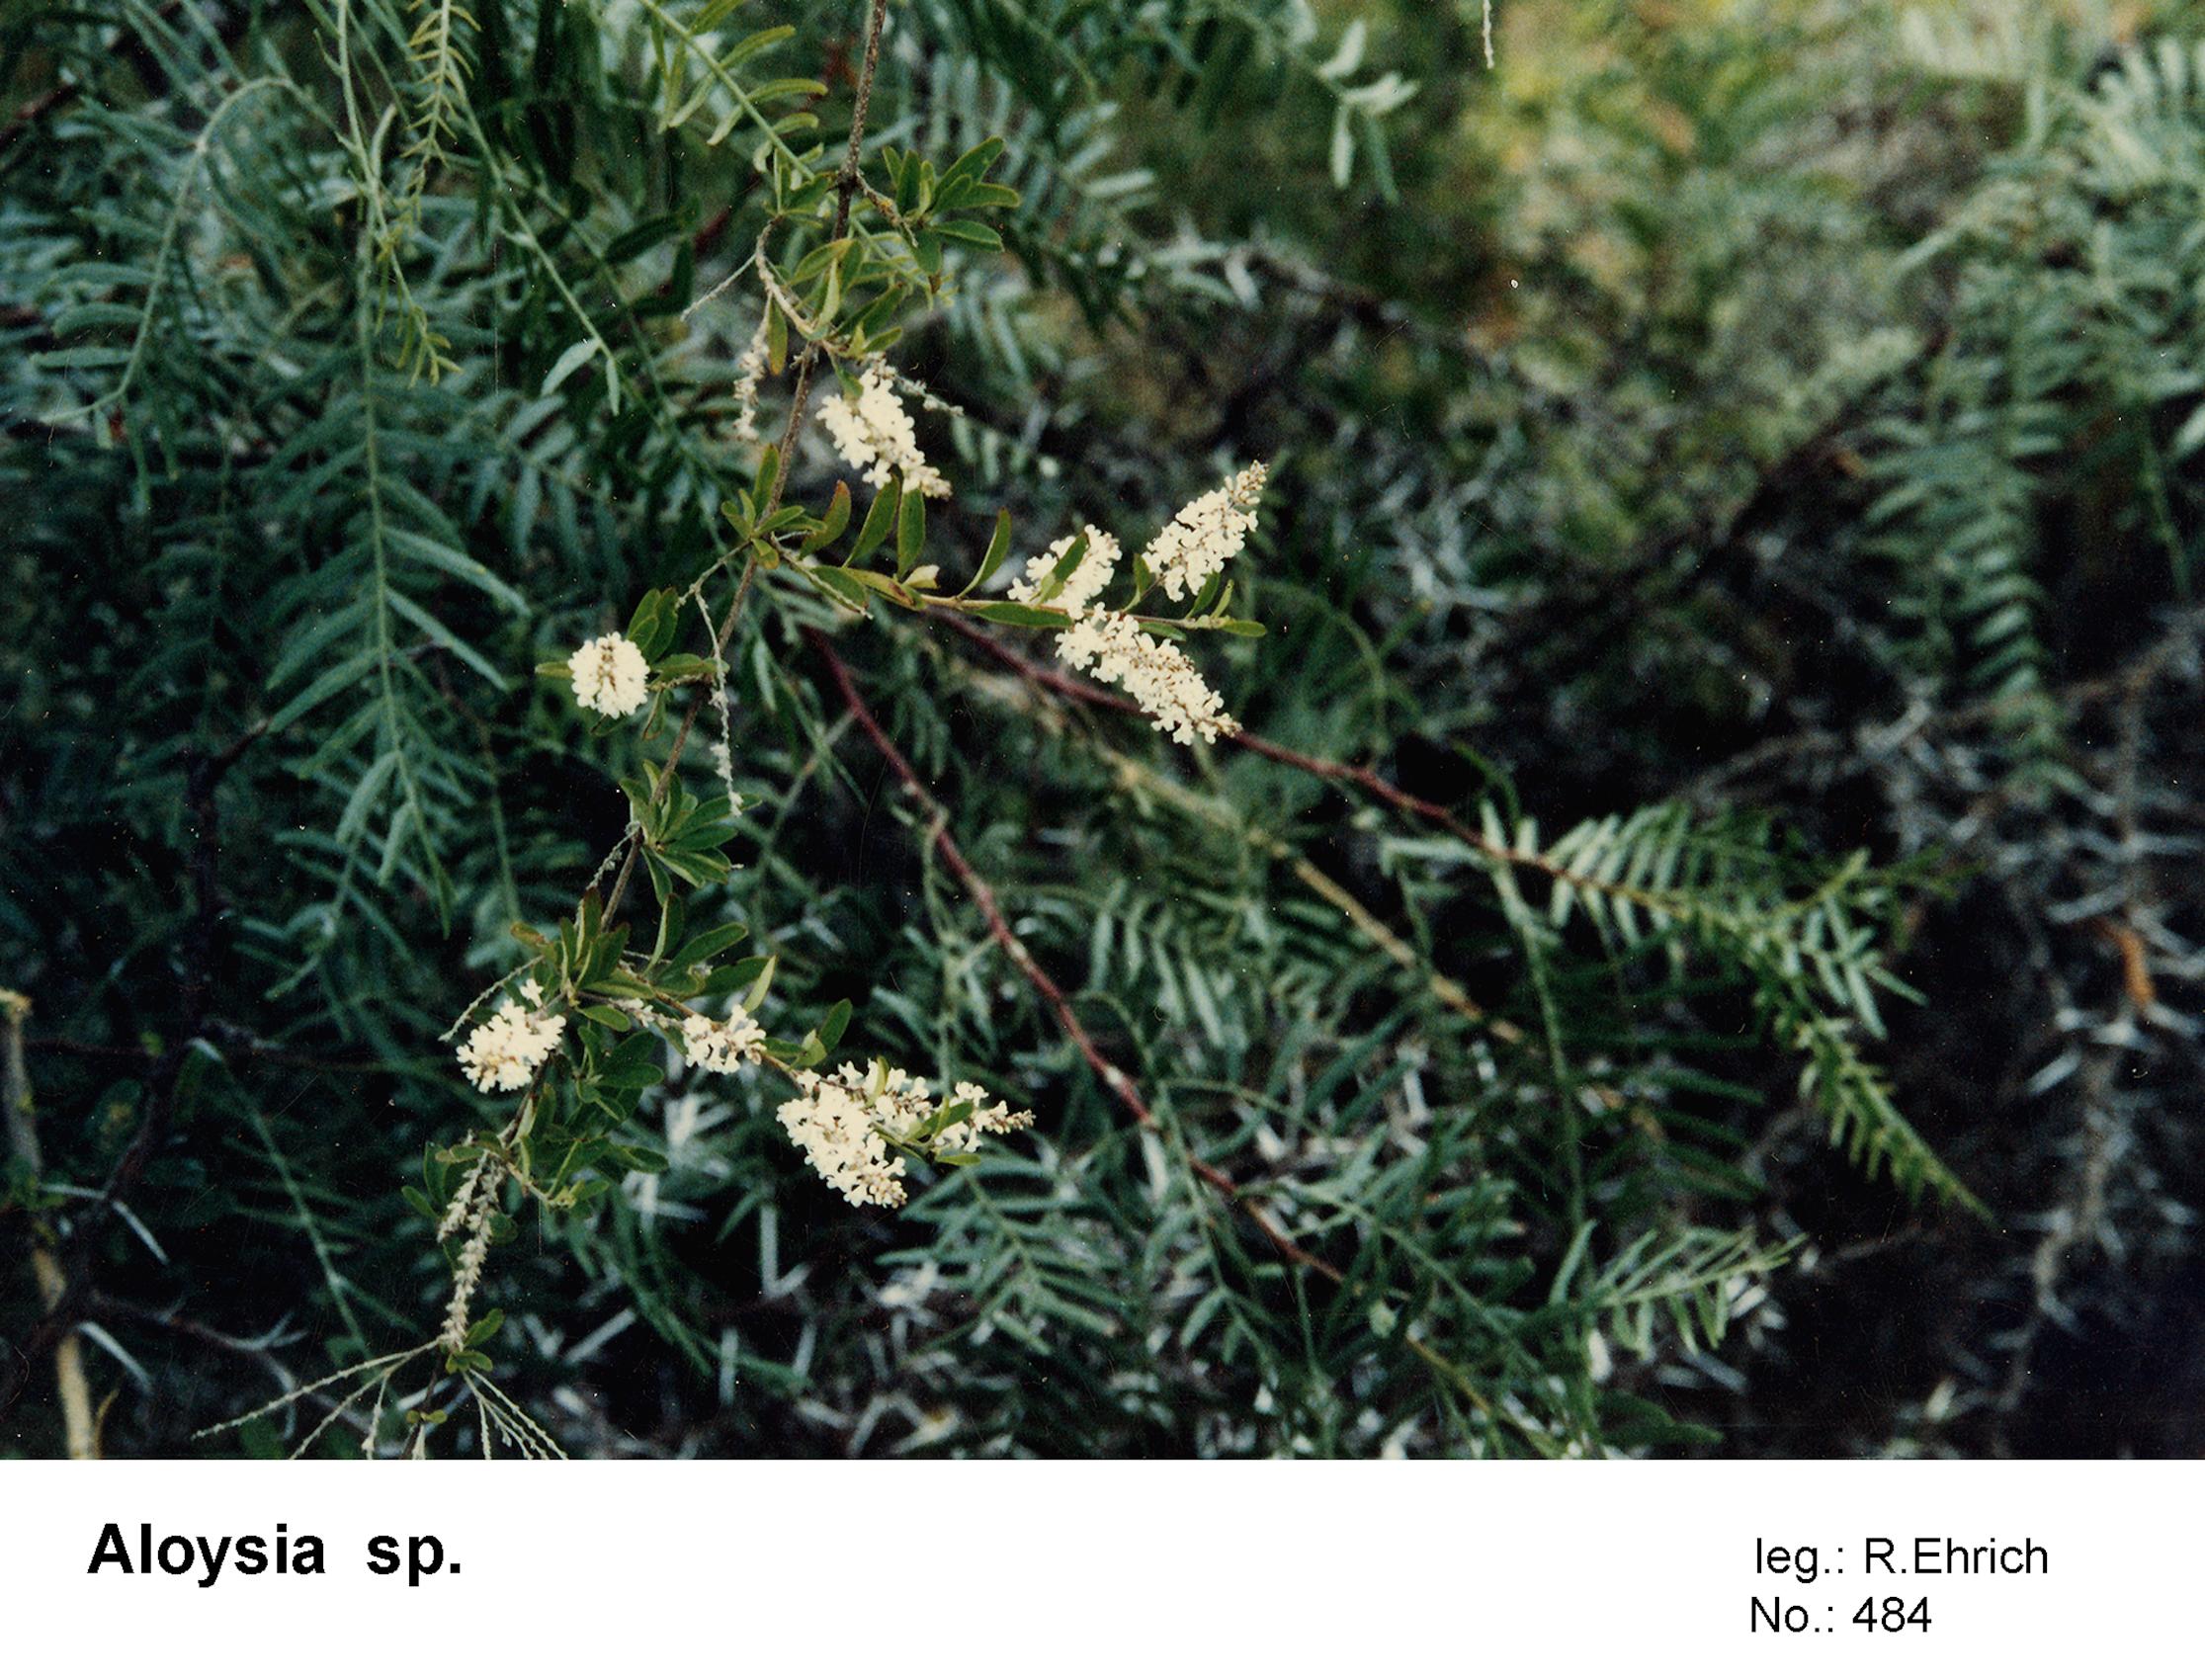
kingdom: Plantae
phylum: Tracheophyta
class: Magnoliopsida
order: Lamiales
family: Verbenaceae
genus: Aloysia
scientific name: Aloysia
